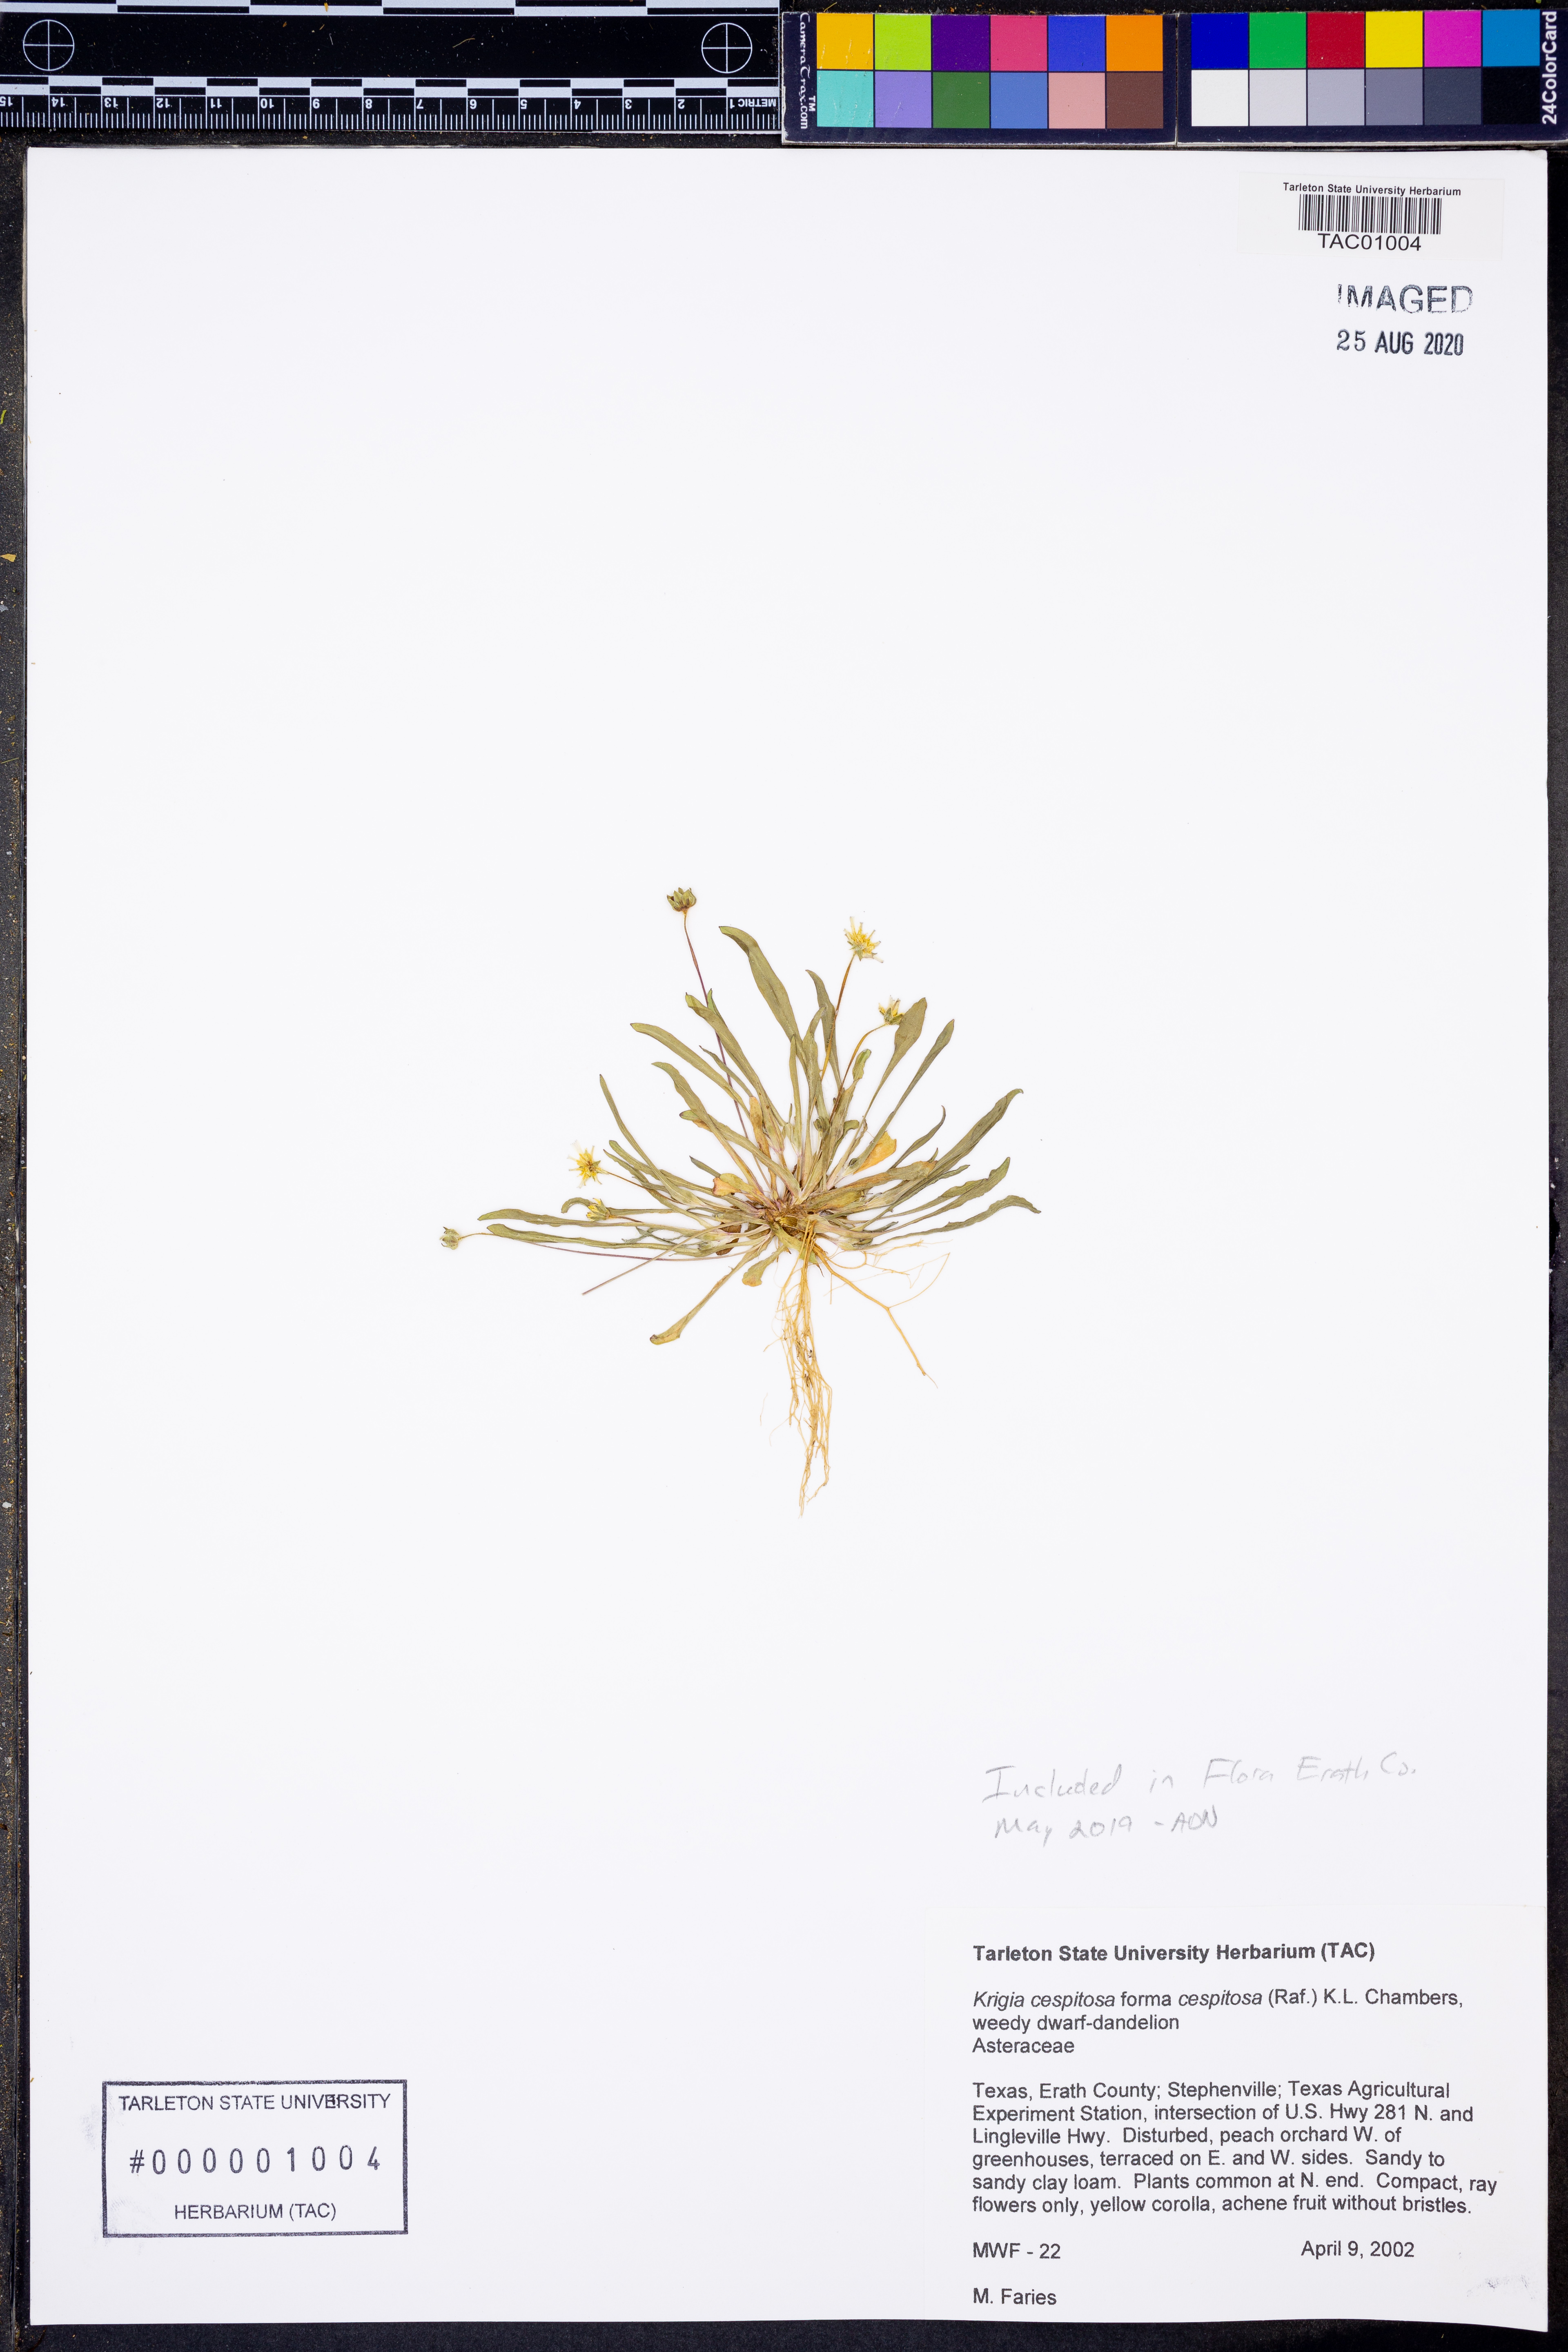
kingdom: Plantae
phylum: Tracheophyta
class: Magnoliopsida
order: Asterales
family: Asteraceae
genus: Krigia
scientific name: Krigia cespitosa
